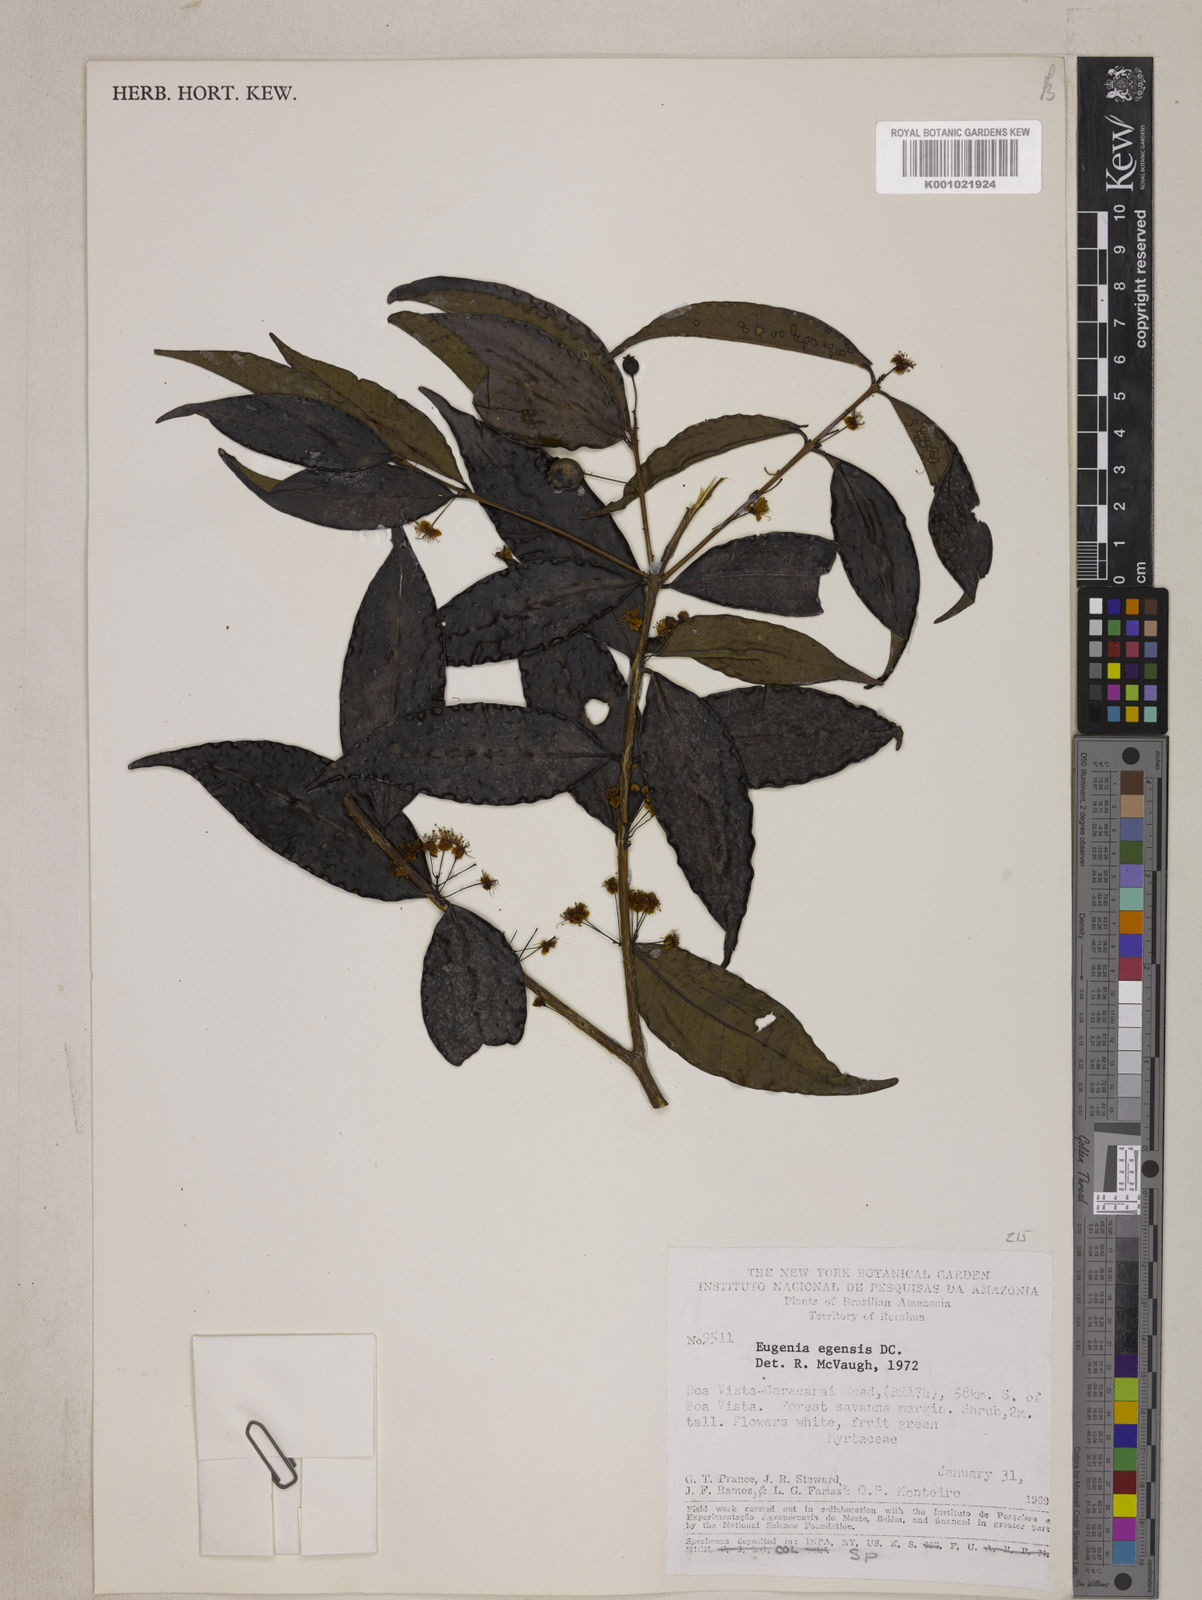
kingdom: Plantae
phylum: Tracheophyta
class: Magnoliopsida
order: Myrtales
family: Myrtaceae
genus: Eugenia
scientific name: Eugenia egensis
